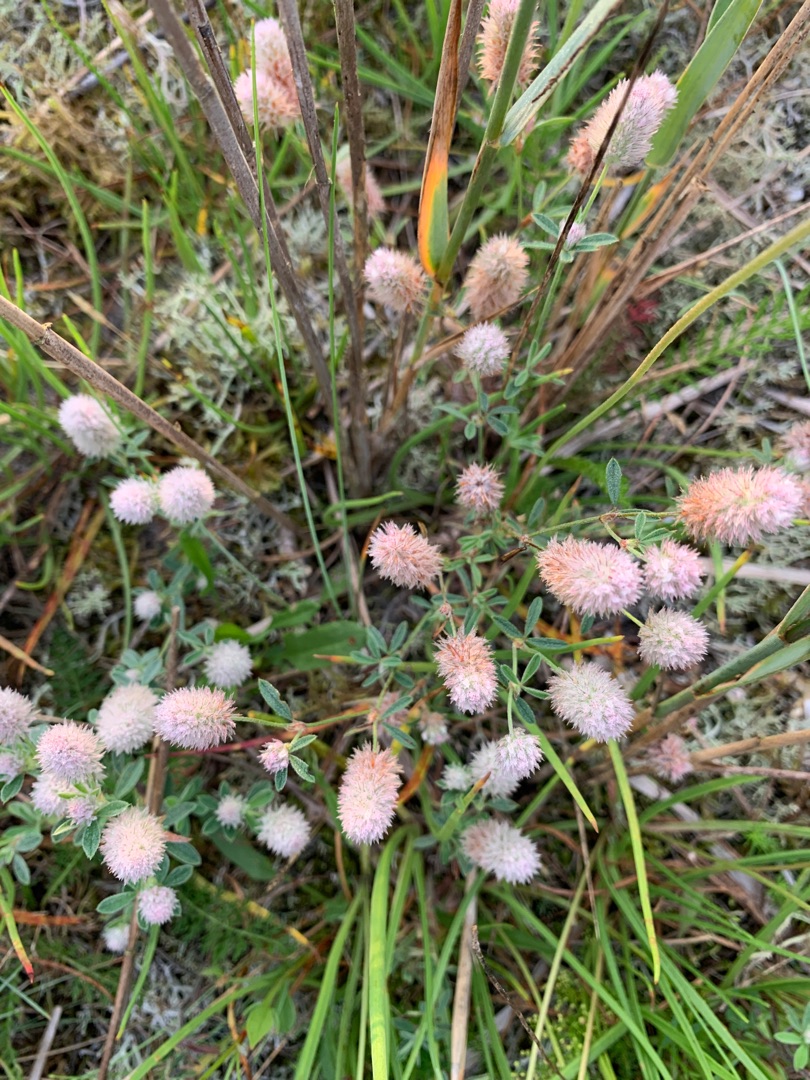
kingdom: Plantae
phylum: Tracheophyta
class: Magnoliopsida
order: Fabales
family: Fabaceae
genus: Trifolium
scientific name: Trifolium arvense
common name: Hare-kløver
